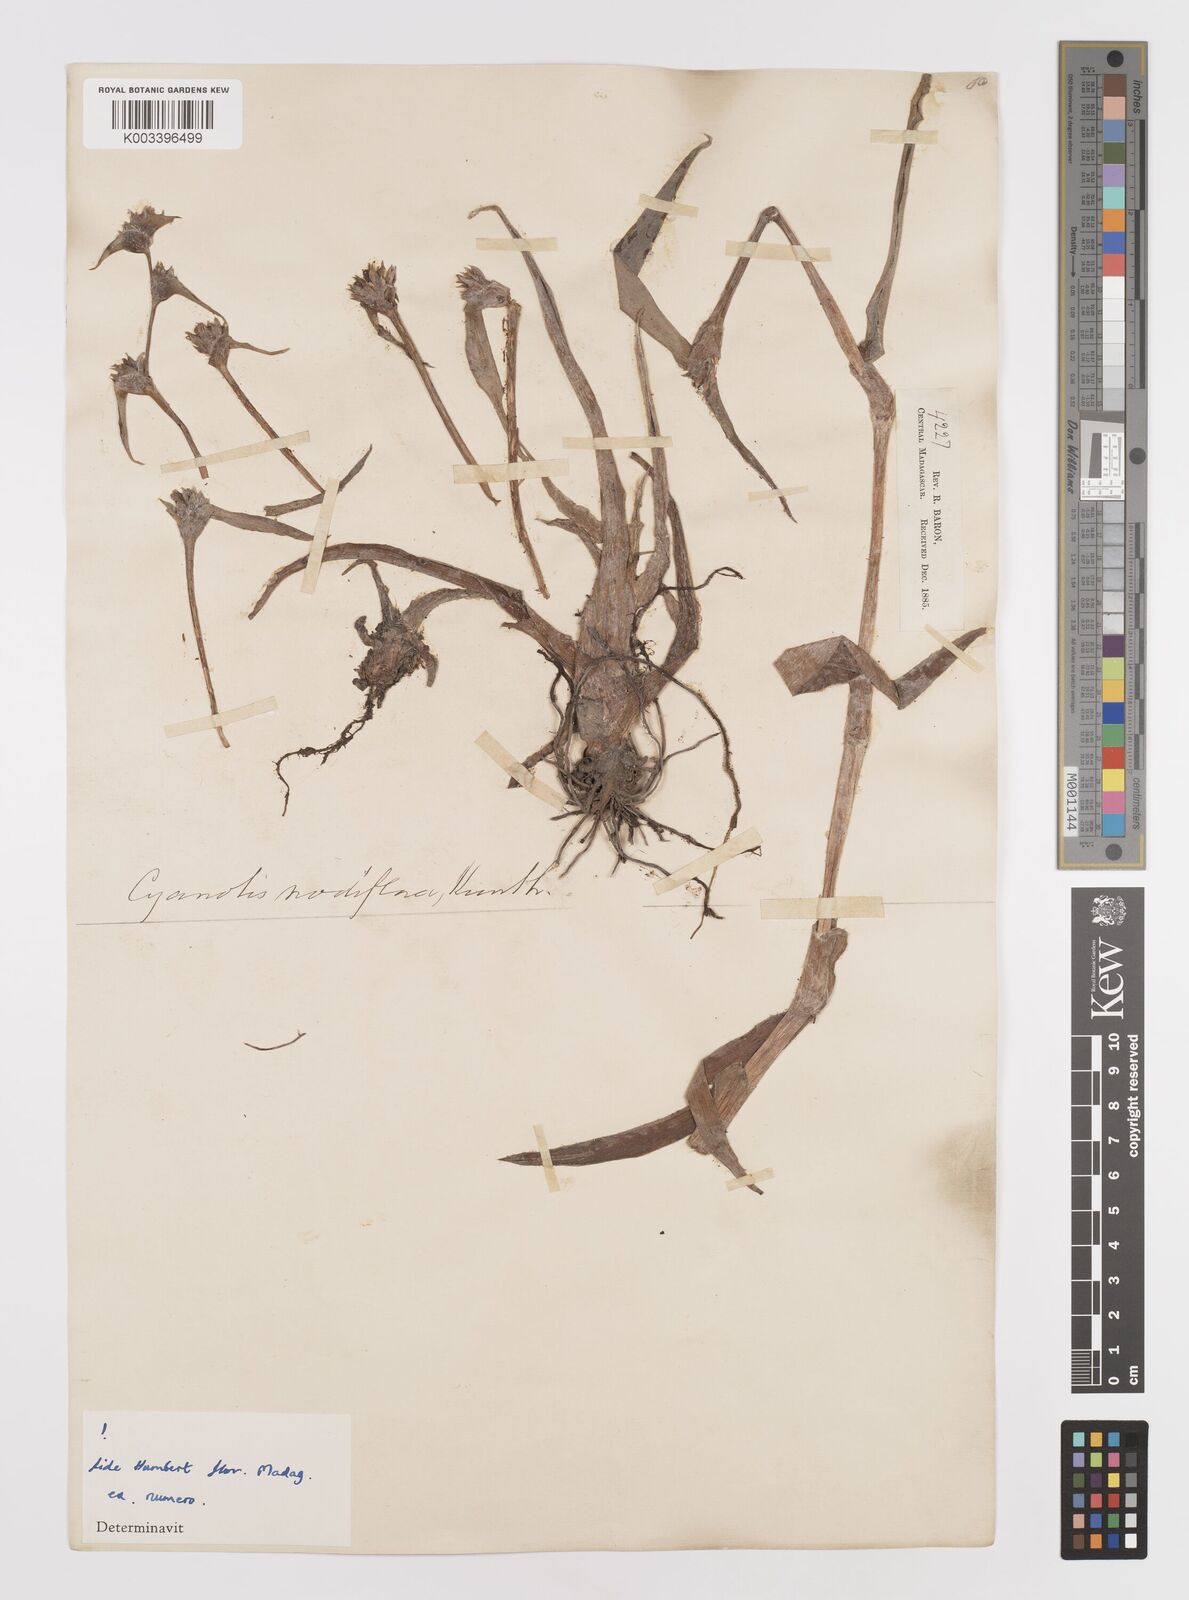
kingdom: Plantae
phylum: Tracheophyta
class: Liliopsida
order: Commelinales
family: Commelinaceae
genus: Cyanotis
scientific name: Cyanotis speciosa
